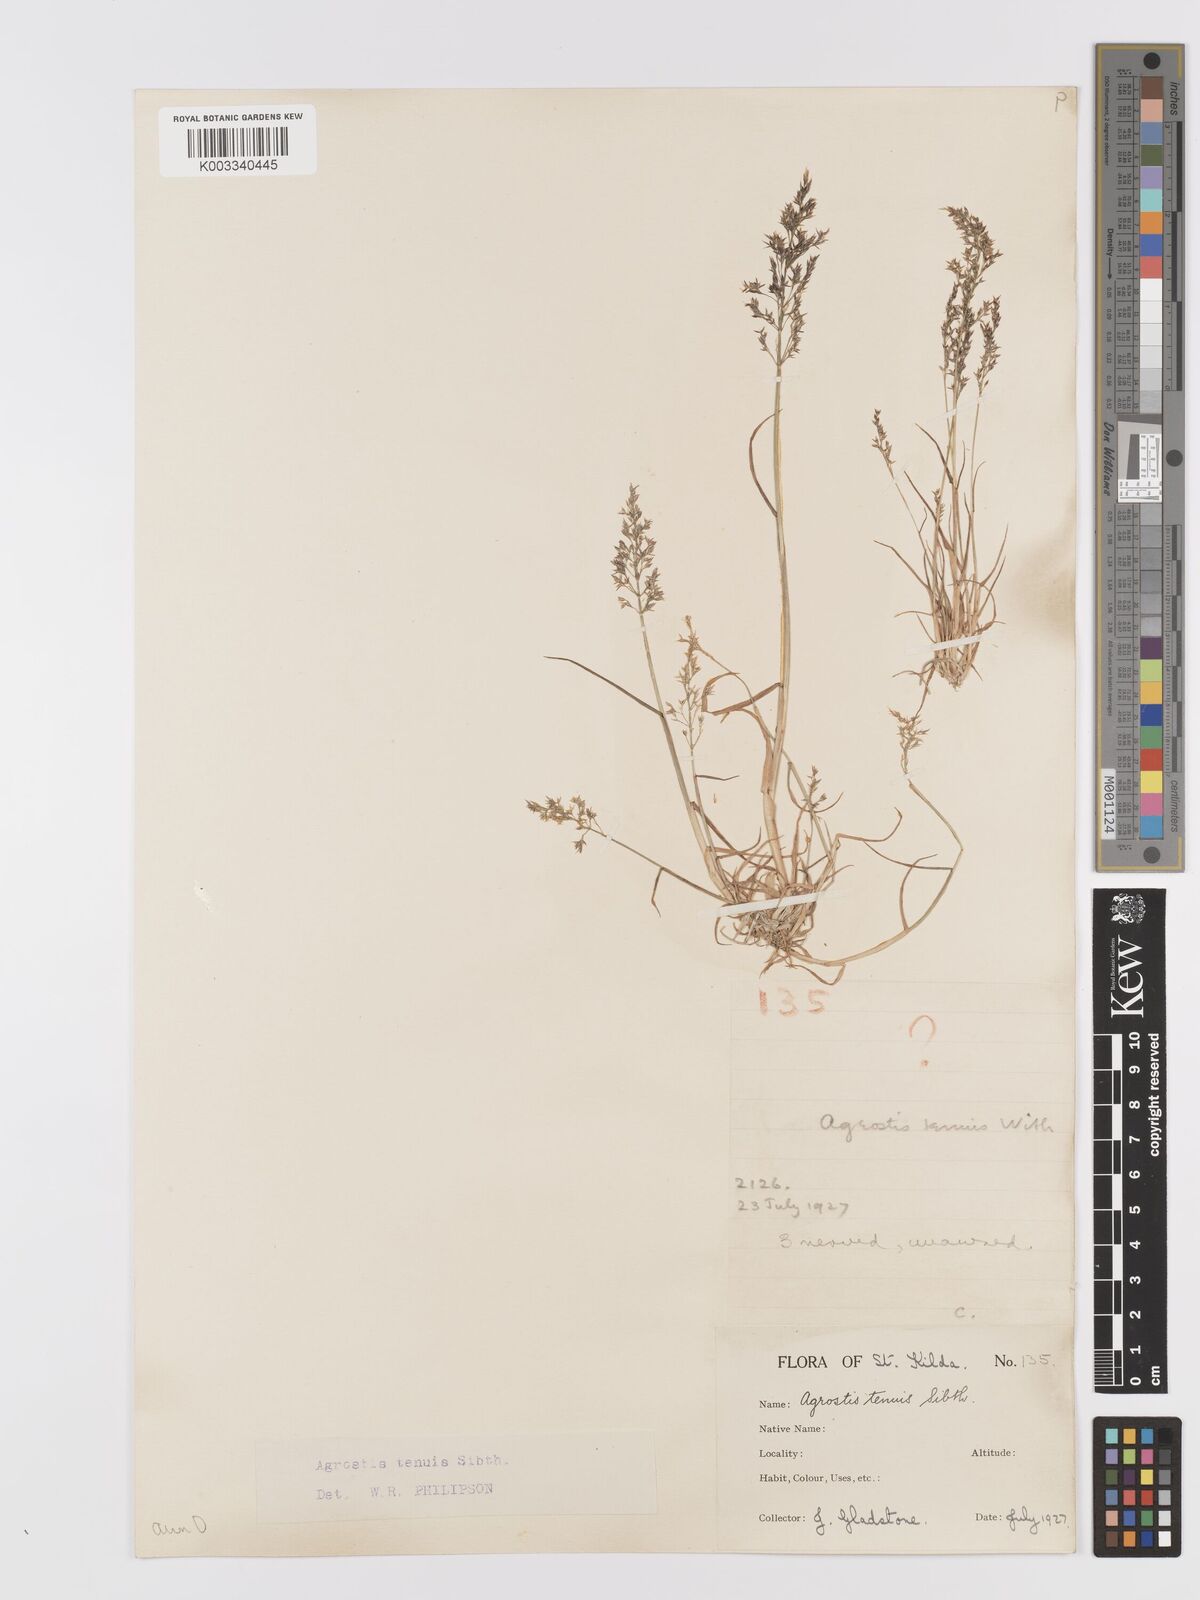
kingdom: Plantae
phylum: Tracheophyta
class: Liliopsida
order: Poales
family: Poaceae
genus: Agrostis
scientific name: Agrostis
